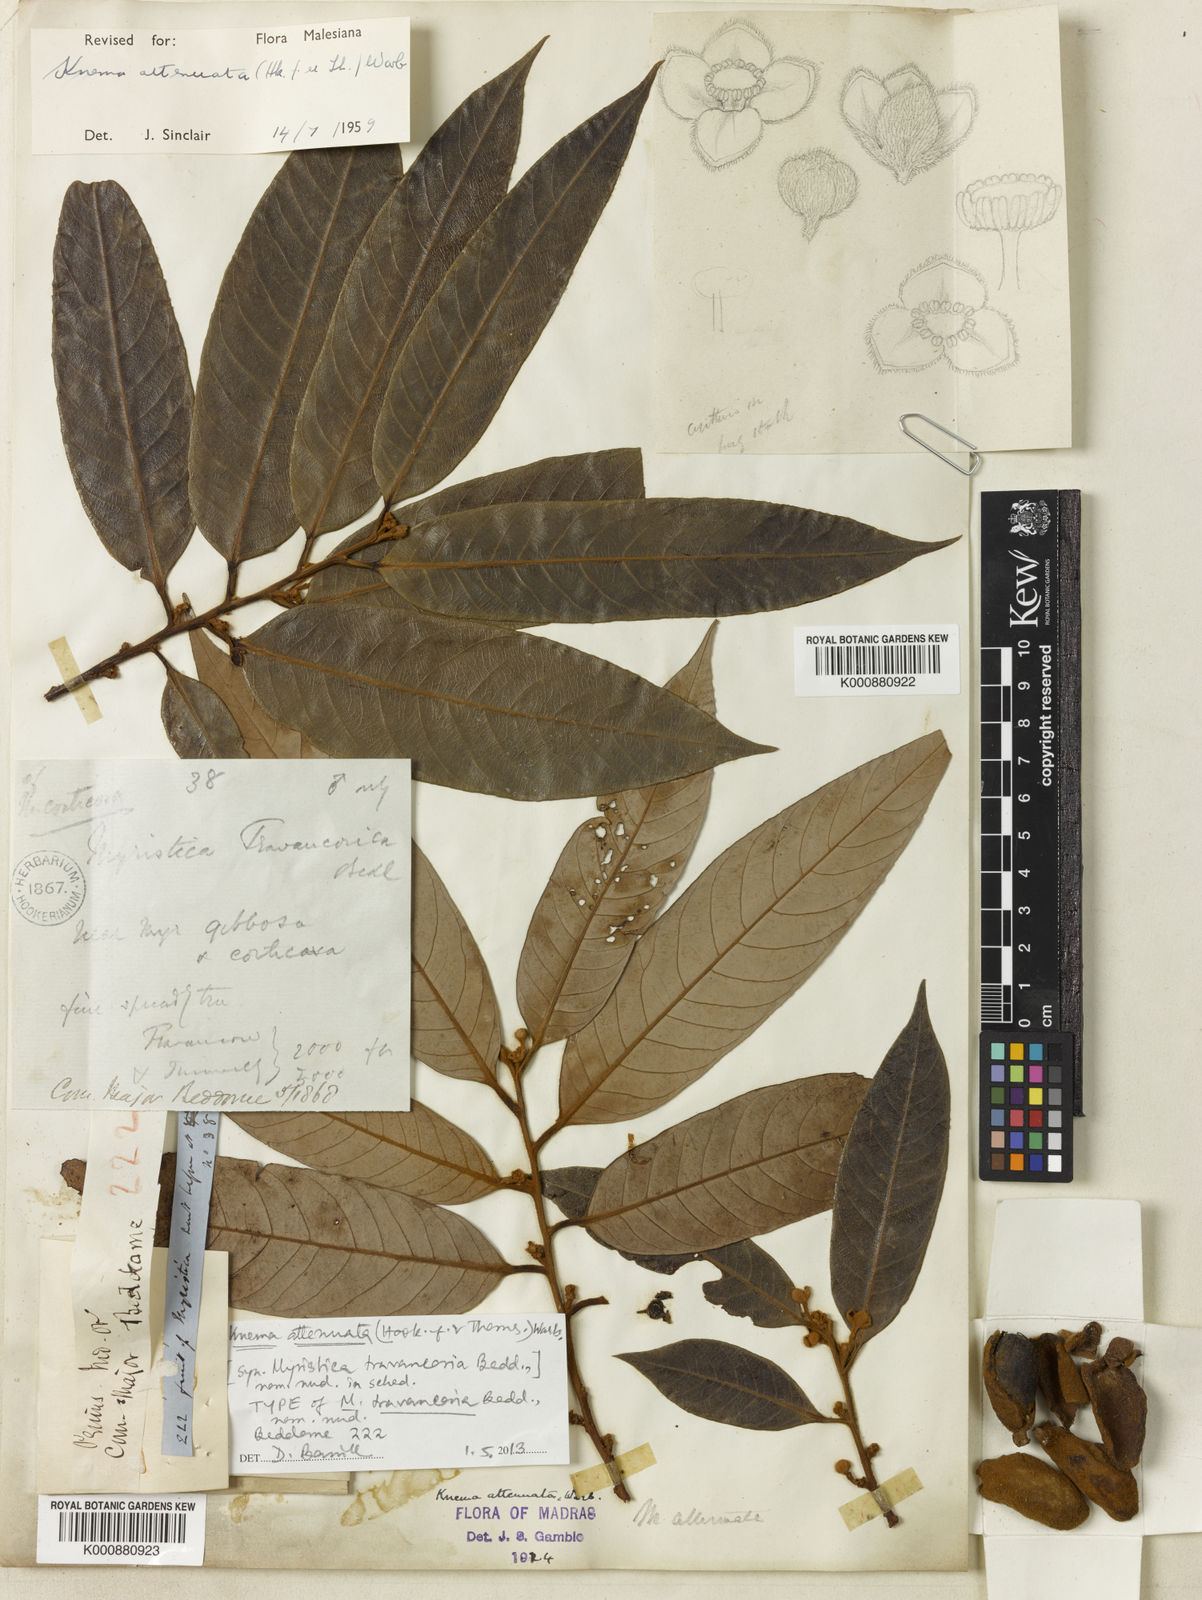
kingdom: Plantae
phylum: Tracheophyta
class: Magnoliopsida
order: Magnoliales
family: Myristicaceae
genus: Knema
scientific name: Knema attenuata
